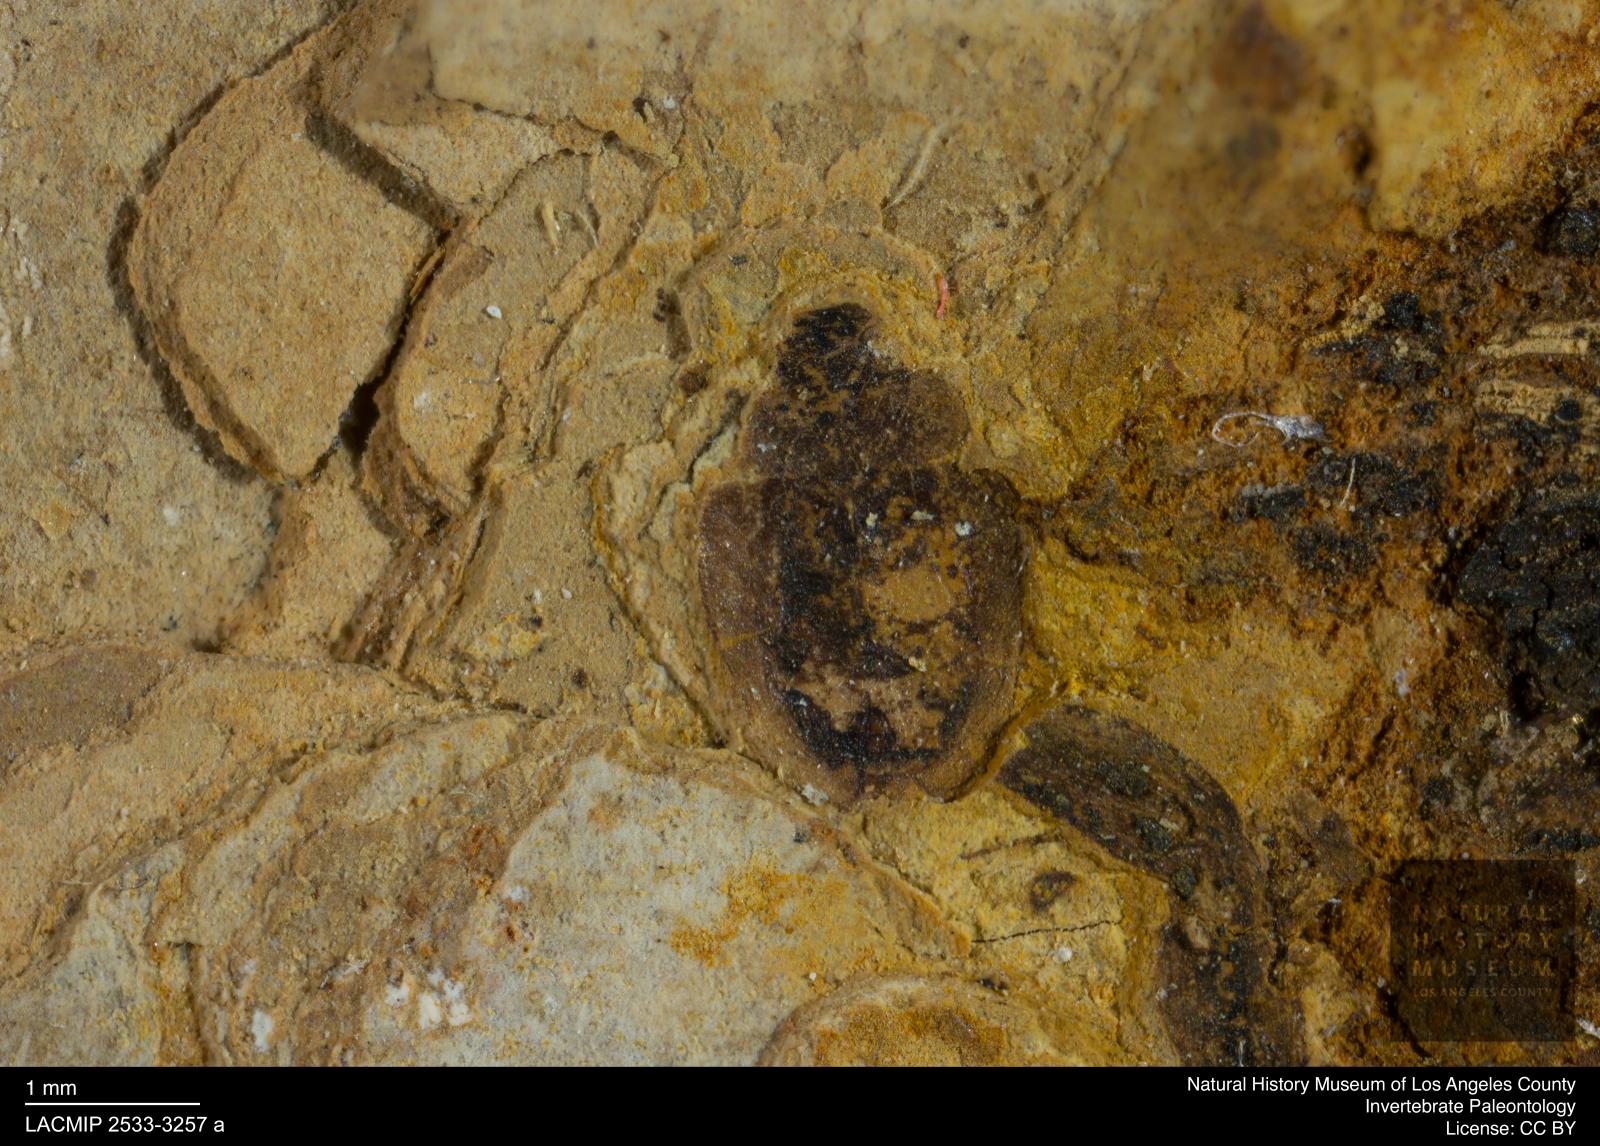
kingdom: Animalia
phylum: Arthropoda
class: Insecta
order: Coleoptera
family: Hydrophilidae
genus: Paracymus
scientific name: Paracymus excitatus
